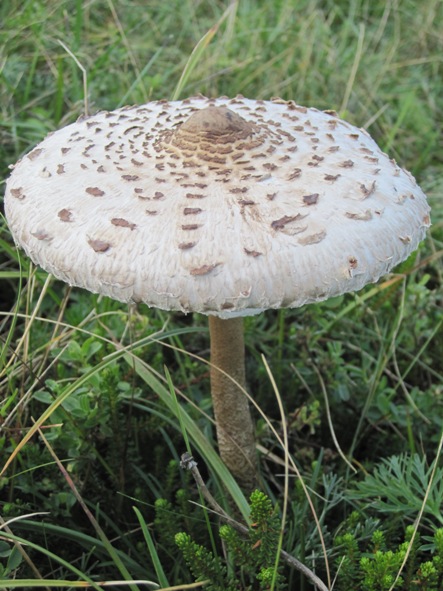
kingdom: Fungi
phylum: Basidiomycota
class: Agaricomycetes
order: Agaricales
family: Agaricaceae
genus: Macrolepiota
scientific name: Macrolepiota procera
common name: stor kæmpeparasolhat
